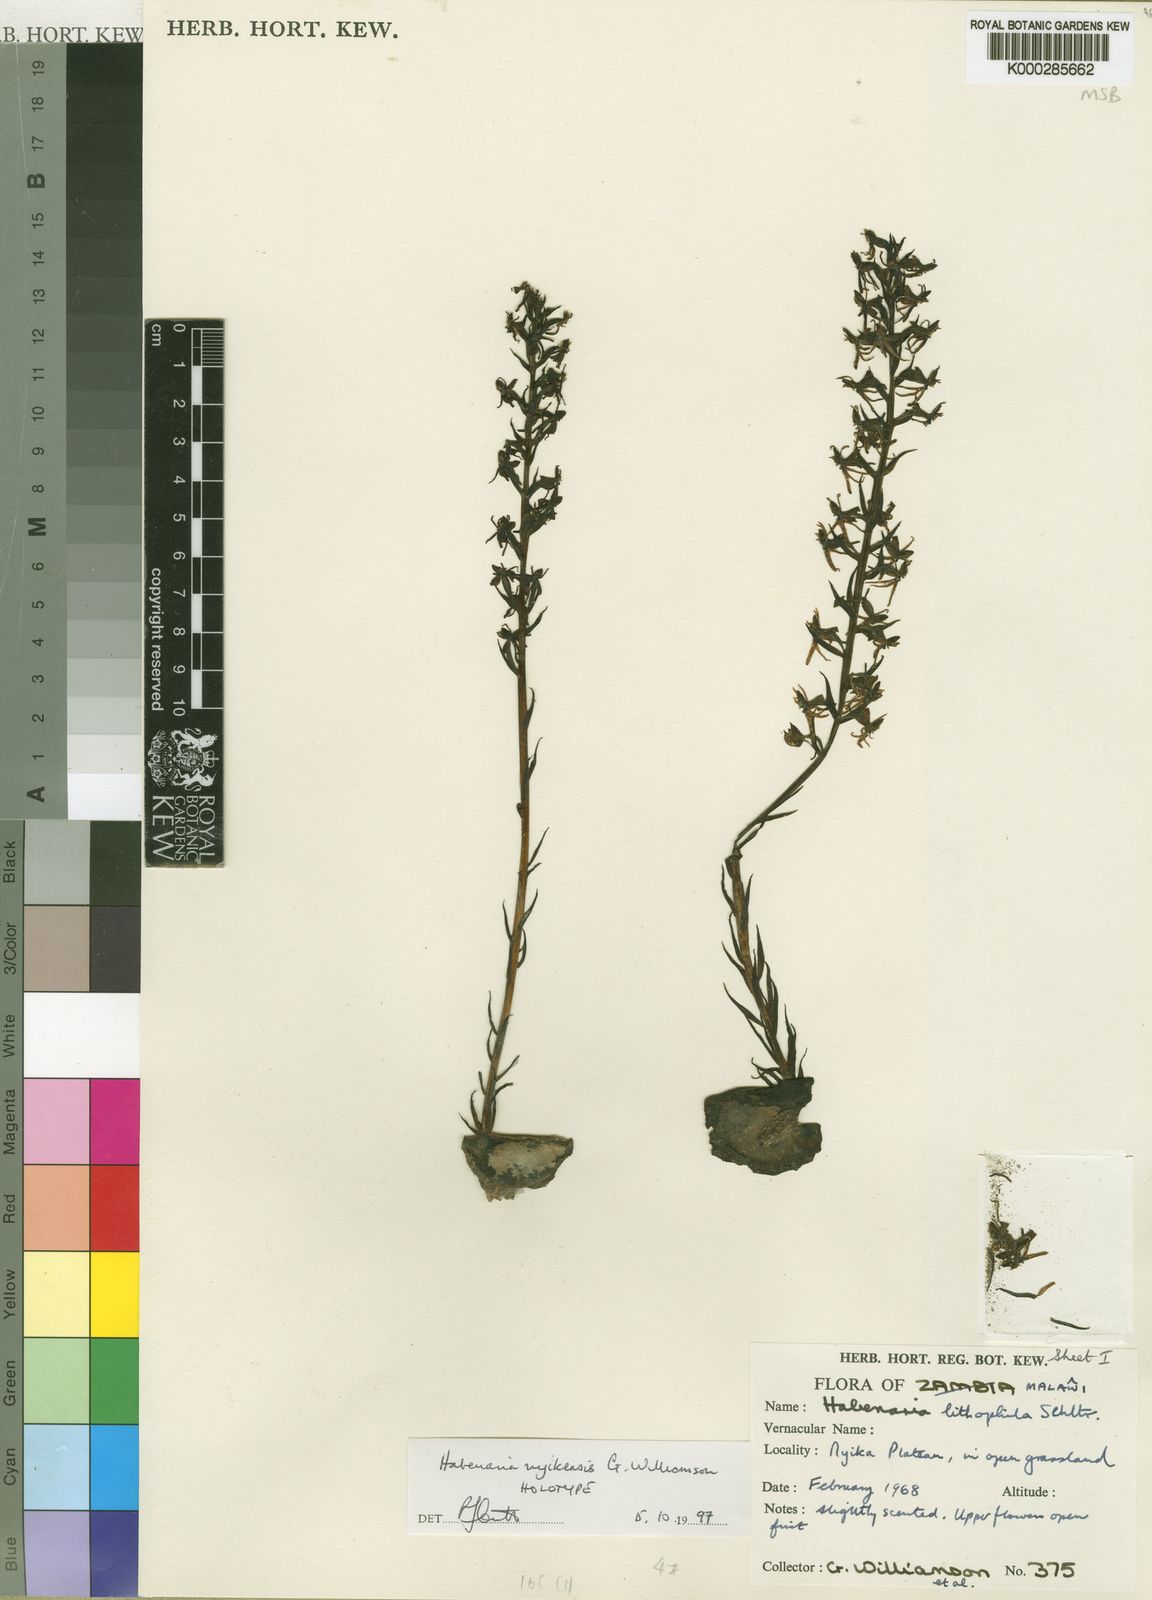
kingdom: Plantae
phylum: Tracheophyta
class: Liliopsida
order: Asparagales
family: Orchidaceae
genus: Habenaria
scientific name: Habenaria nyikensis
